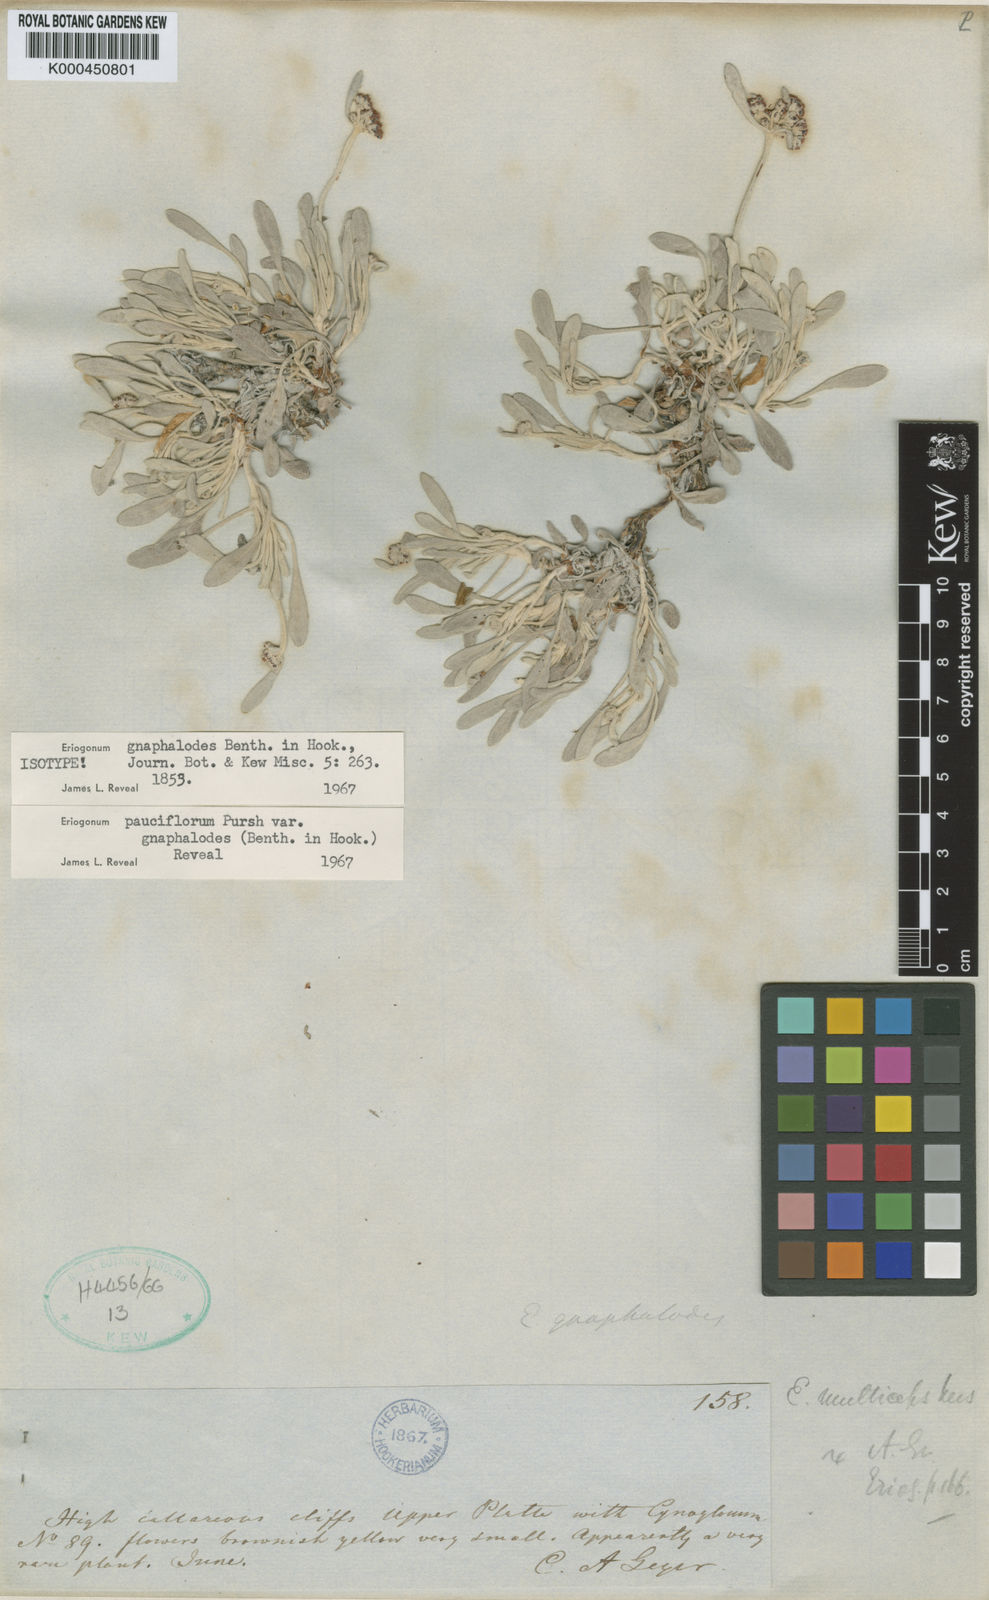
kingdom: Plantae
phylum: Tracheophyta
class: Magnoliopsida
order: Caryophyllales
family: Polygonaceae
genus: Eriogonum
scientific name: Eriogonum pauciflorum
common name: Few-flower wild buckwheat
